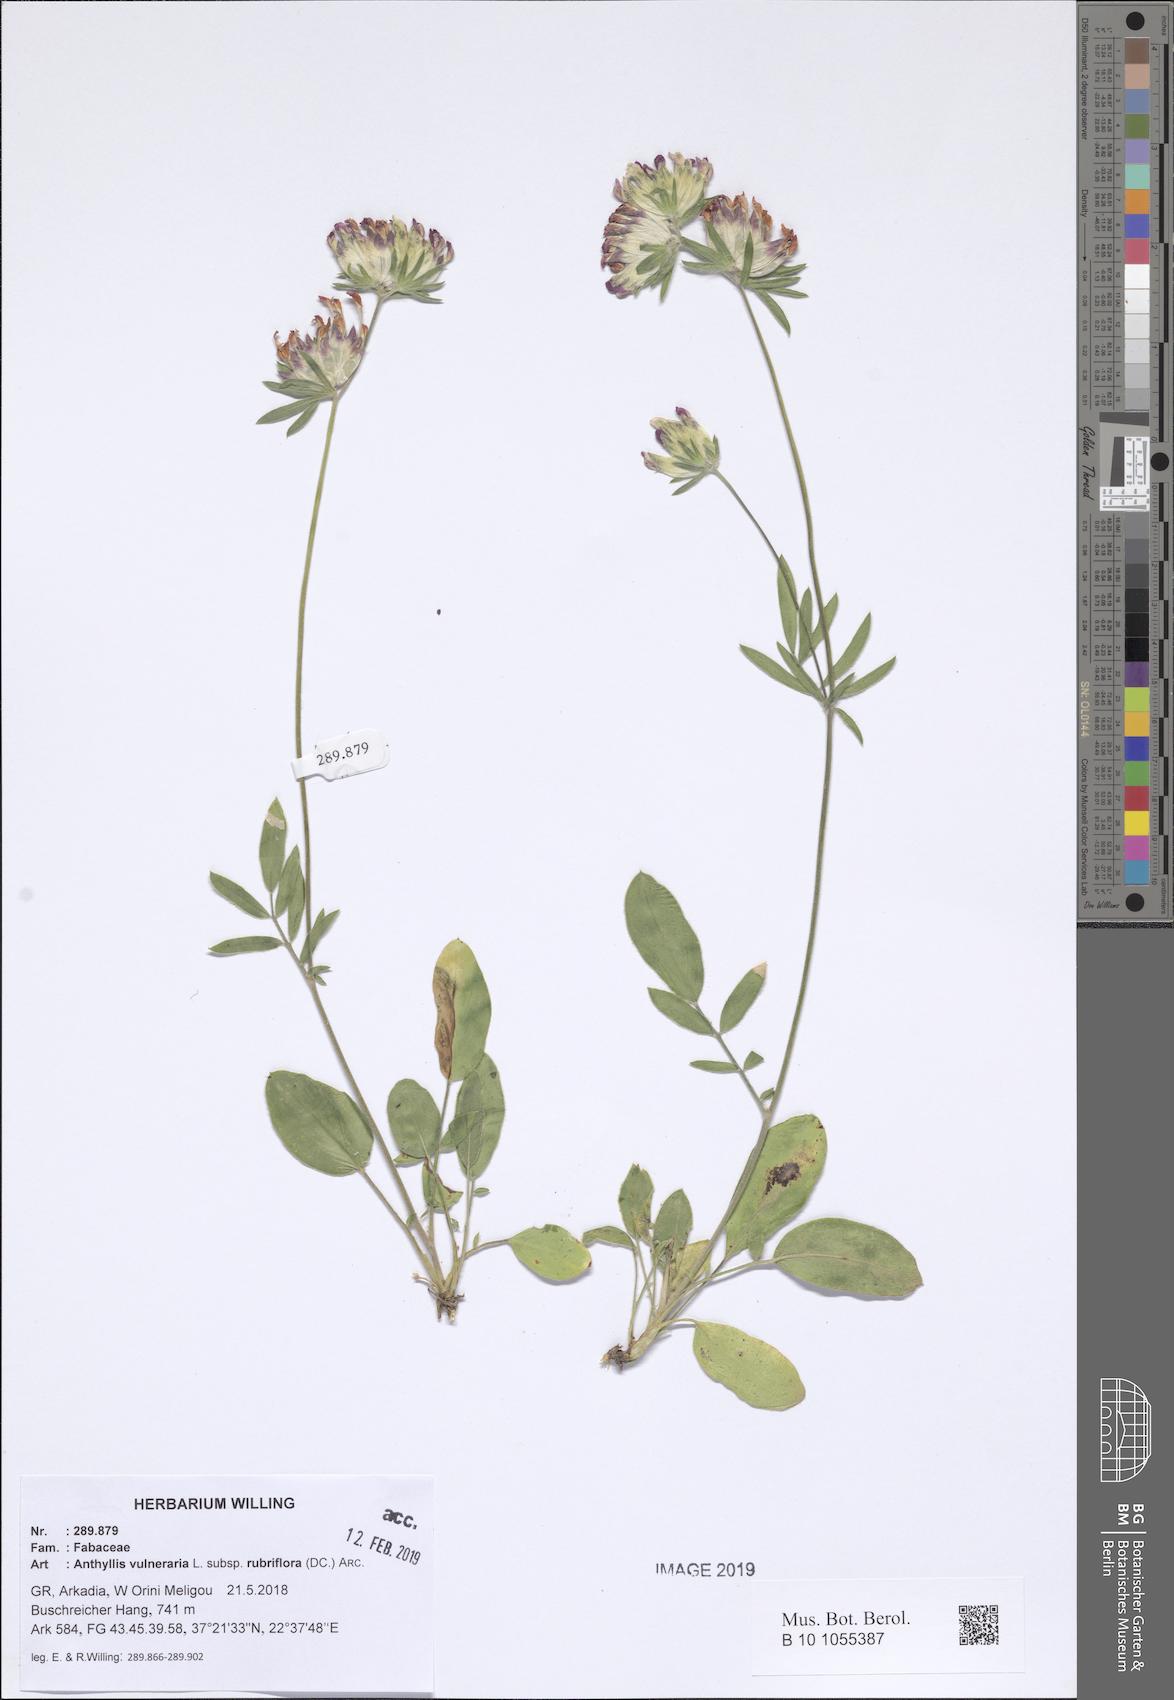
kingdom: Plantae
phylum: Tracheophyta
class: Magnoliopsida
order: Fabales
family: Fabaceae
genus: Anthyllis
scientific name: Anthyllis vulneraria
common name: Kidney vetch
